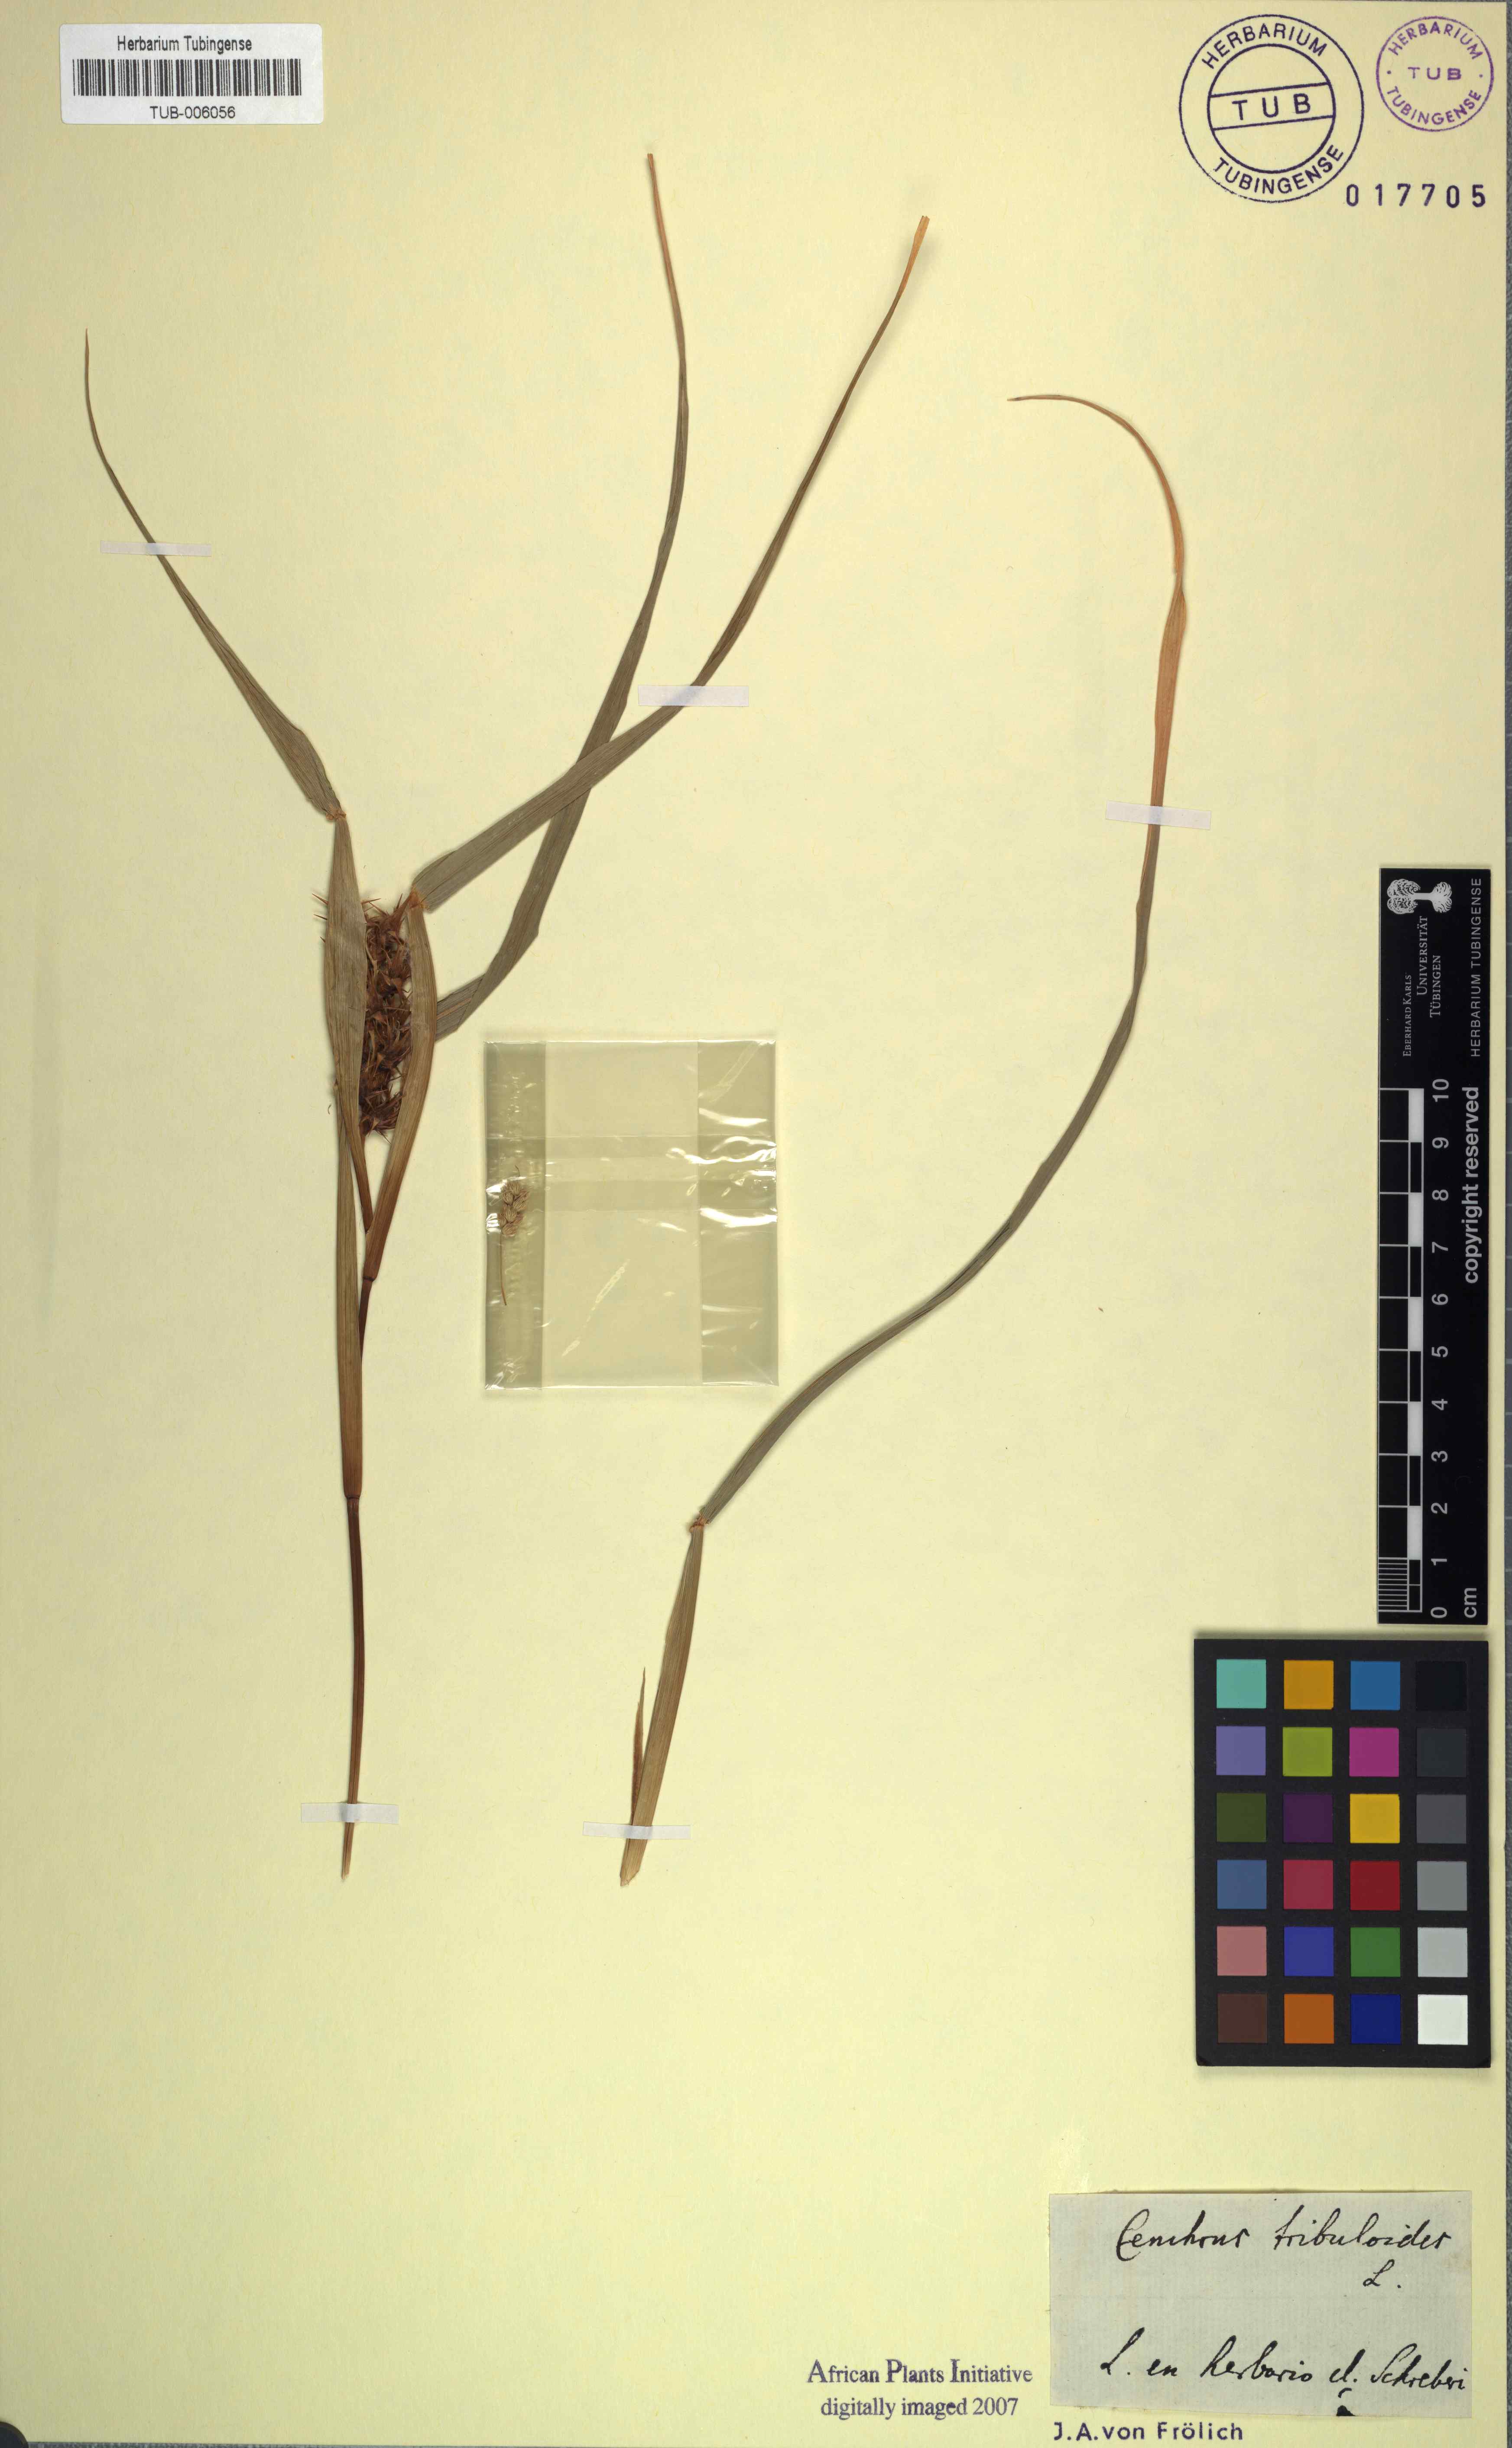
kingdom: Plantae
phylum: Tracheophyta
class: Liliopsida
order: Poales
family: Poaceae
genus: Cenchrus
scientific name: Cenchrus tribuloides
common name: Dune sandbur
